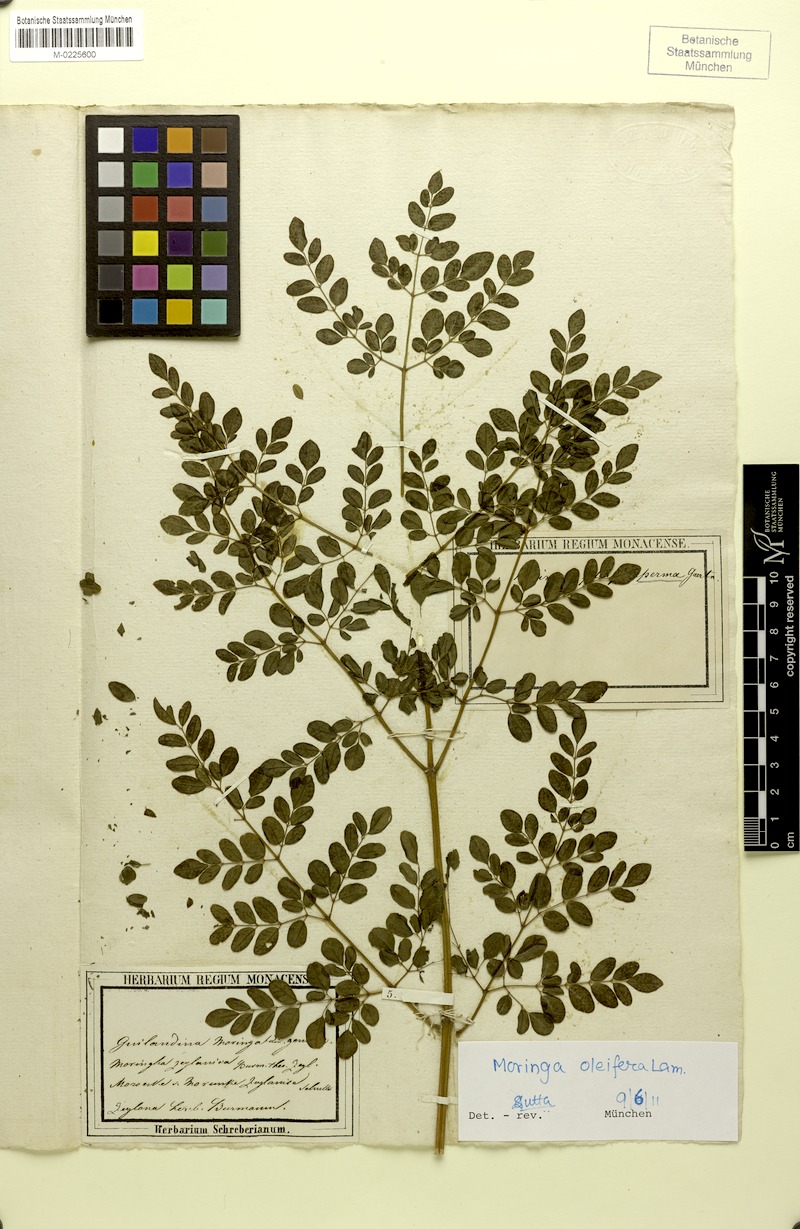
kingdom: Plantae
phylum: Tracheophyta
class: Magnoliopsida
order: Brassicales
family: Moringaceae
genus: Moringa
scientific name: Moringa oleifera
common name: Horseradish-tree
